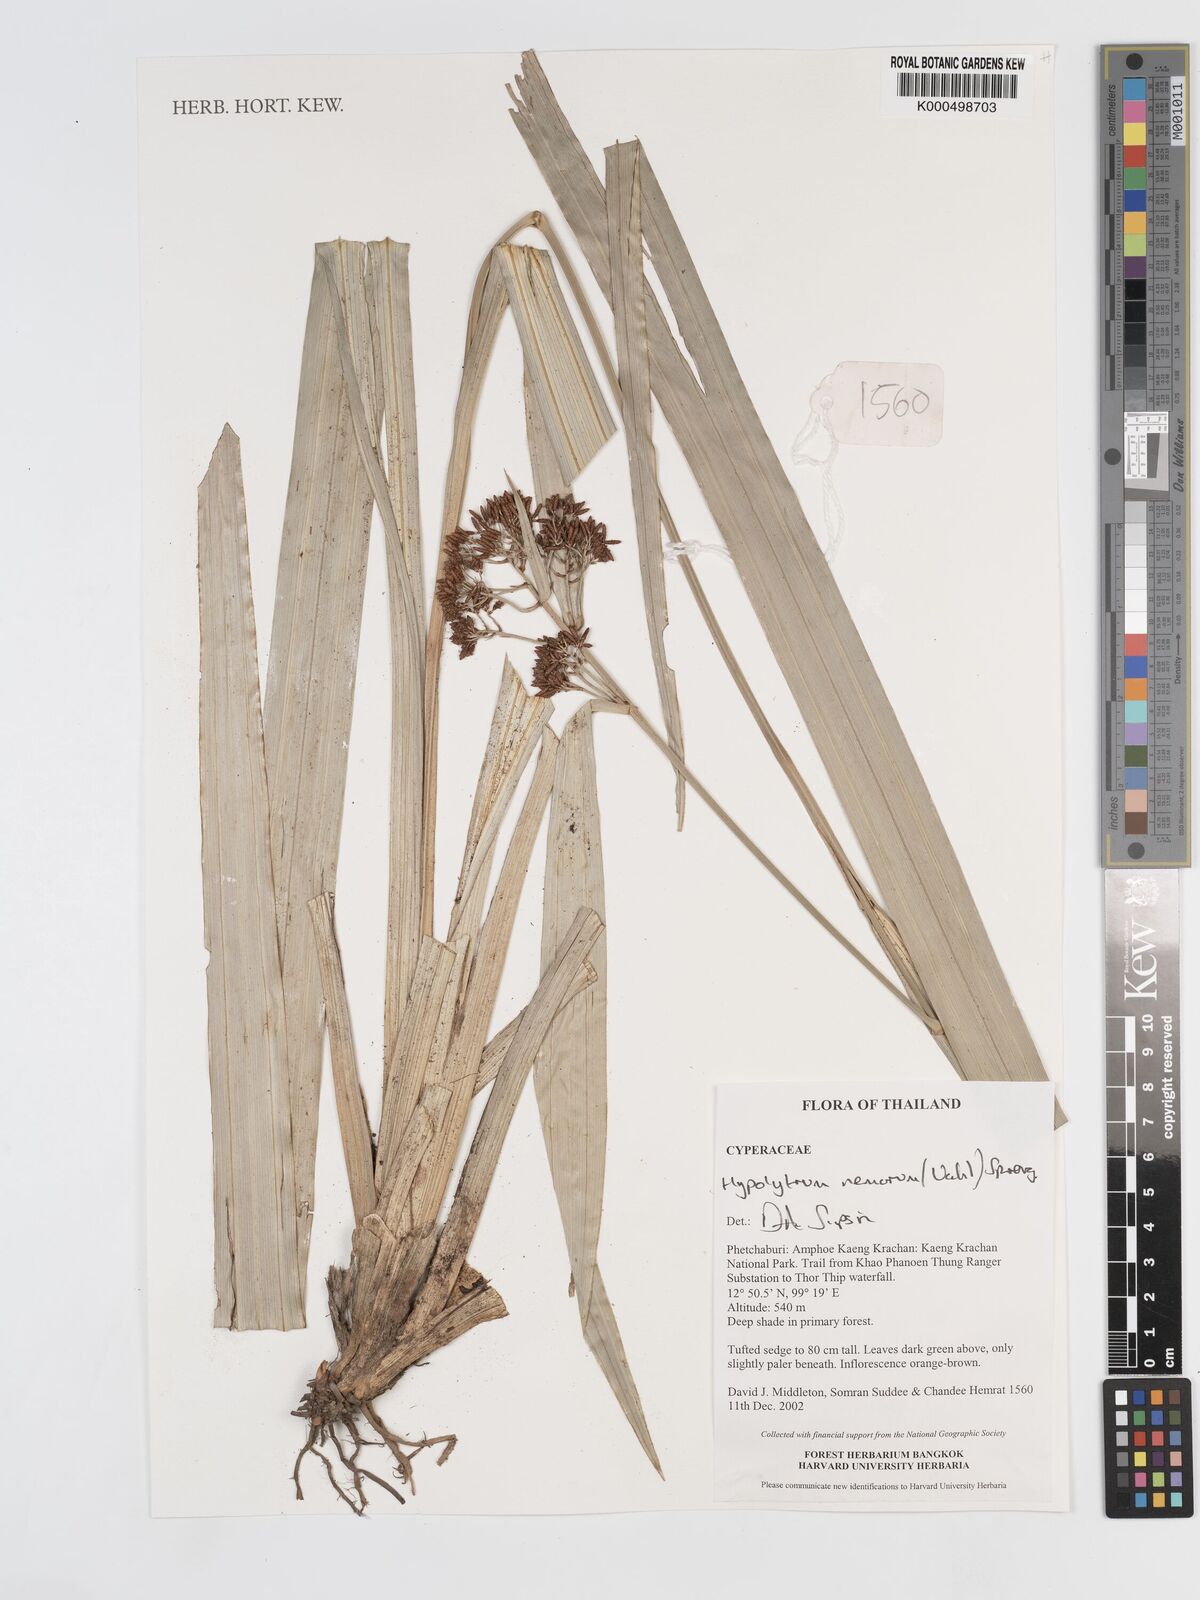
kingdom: Plantae
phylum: Tracheophyta
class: Liliopsida
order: Poales
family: Cyperaceae
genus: Hypolytrum
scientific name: Hypolytrum nemorum
